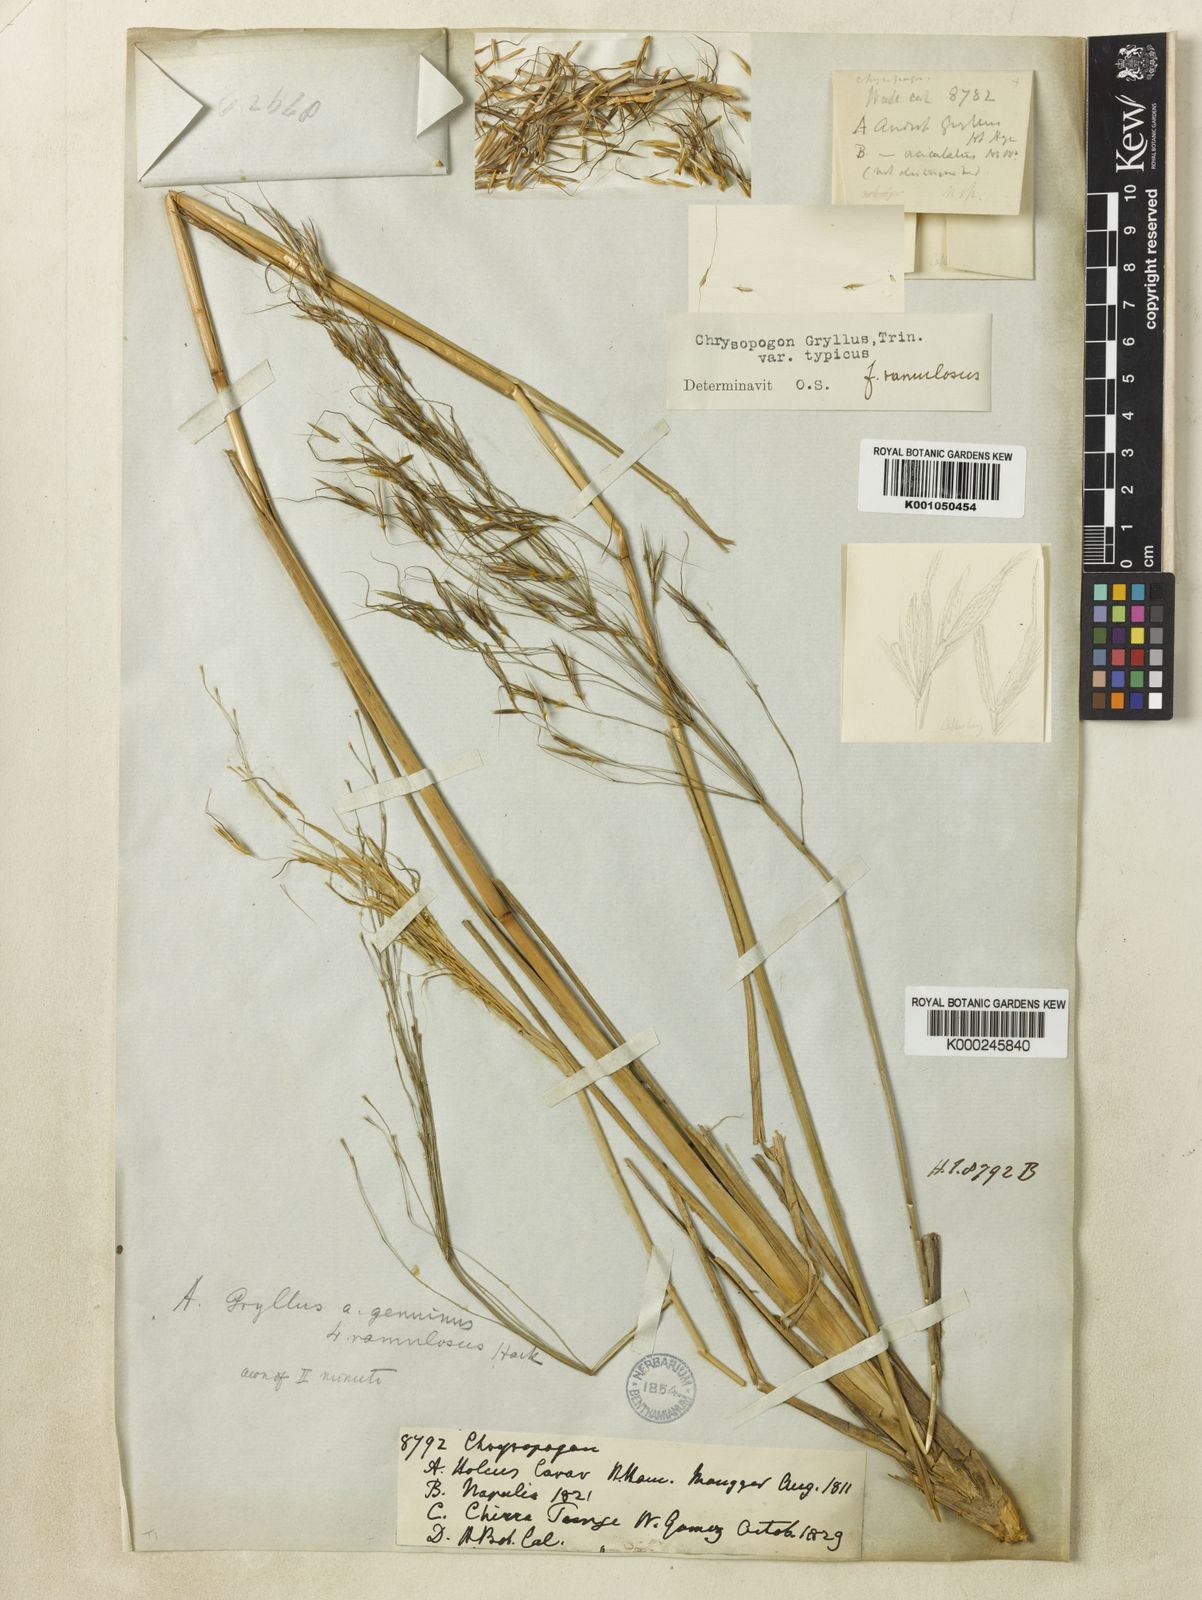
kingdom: Plantae
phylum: Tracheophyta
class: Liliopsida
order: Poales
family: Poaceae
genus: Chrysopogon
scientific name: Chrysopogon gryllus
